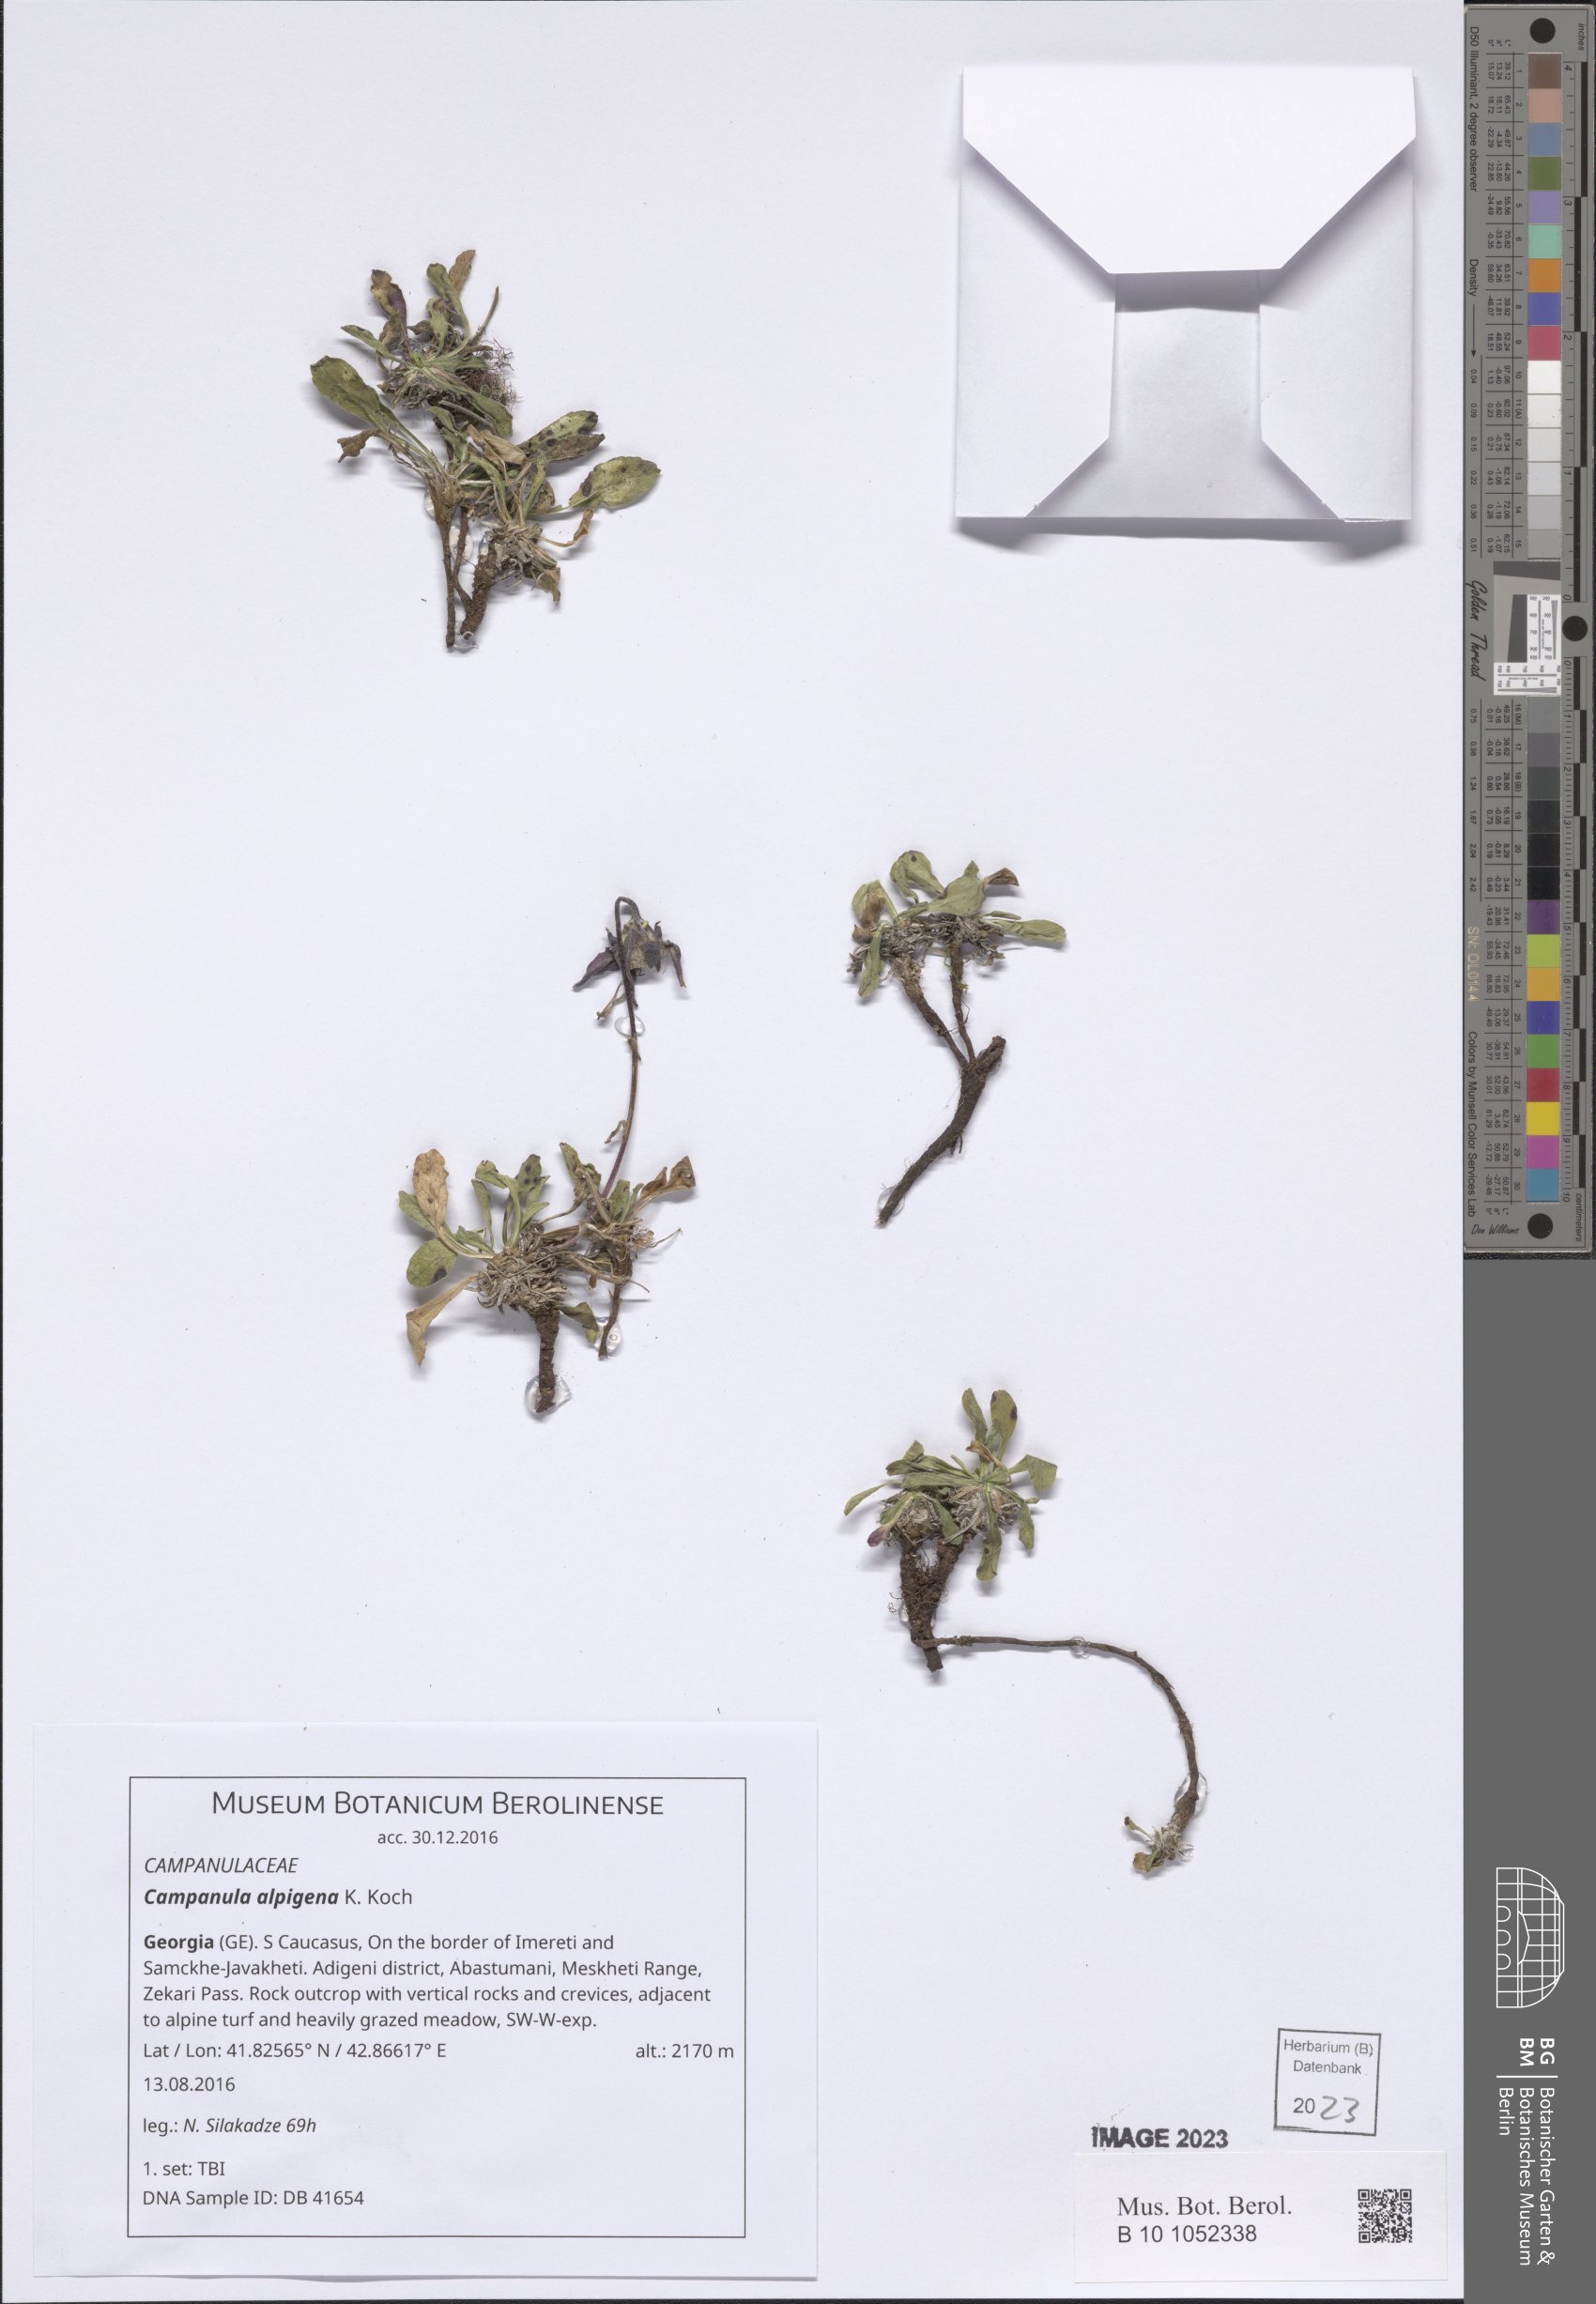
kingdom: Plantae
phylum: Tracheophyta
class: Magnoliopsida
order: Asterales
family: Campanulaceae
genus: Campanula
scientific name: Campanula saxifraga
